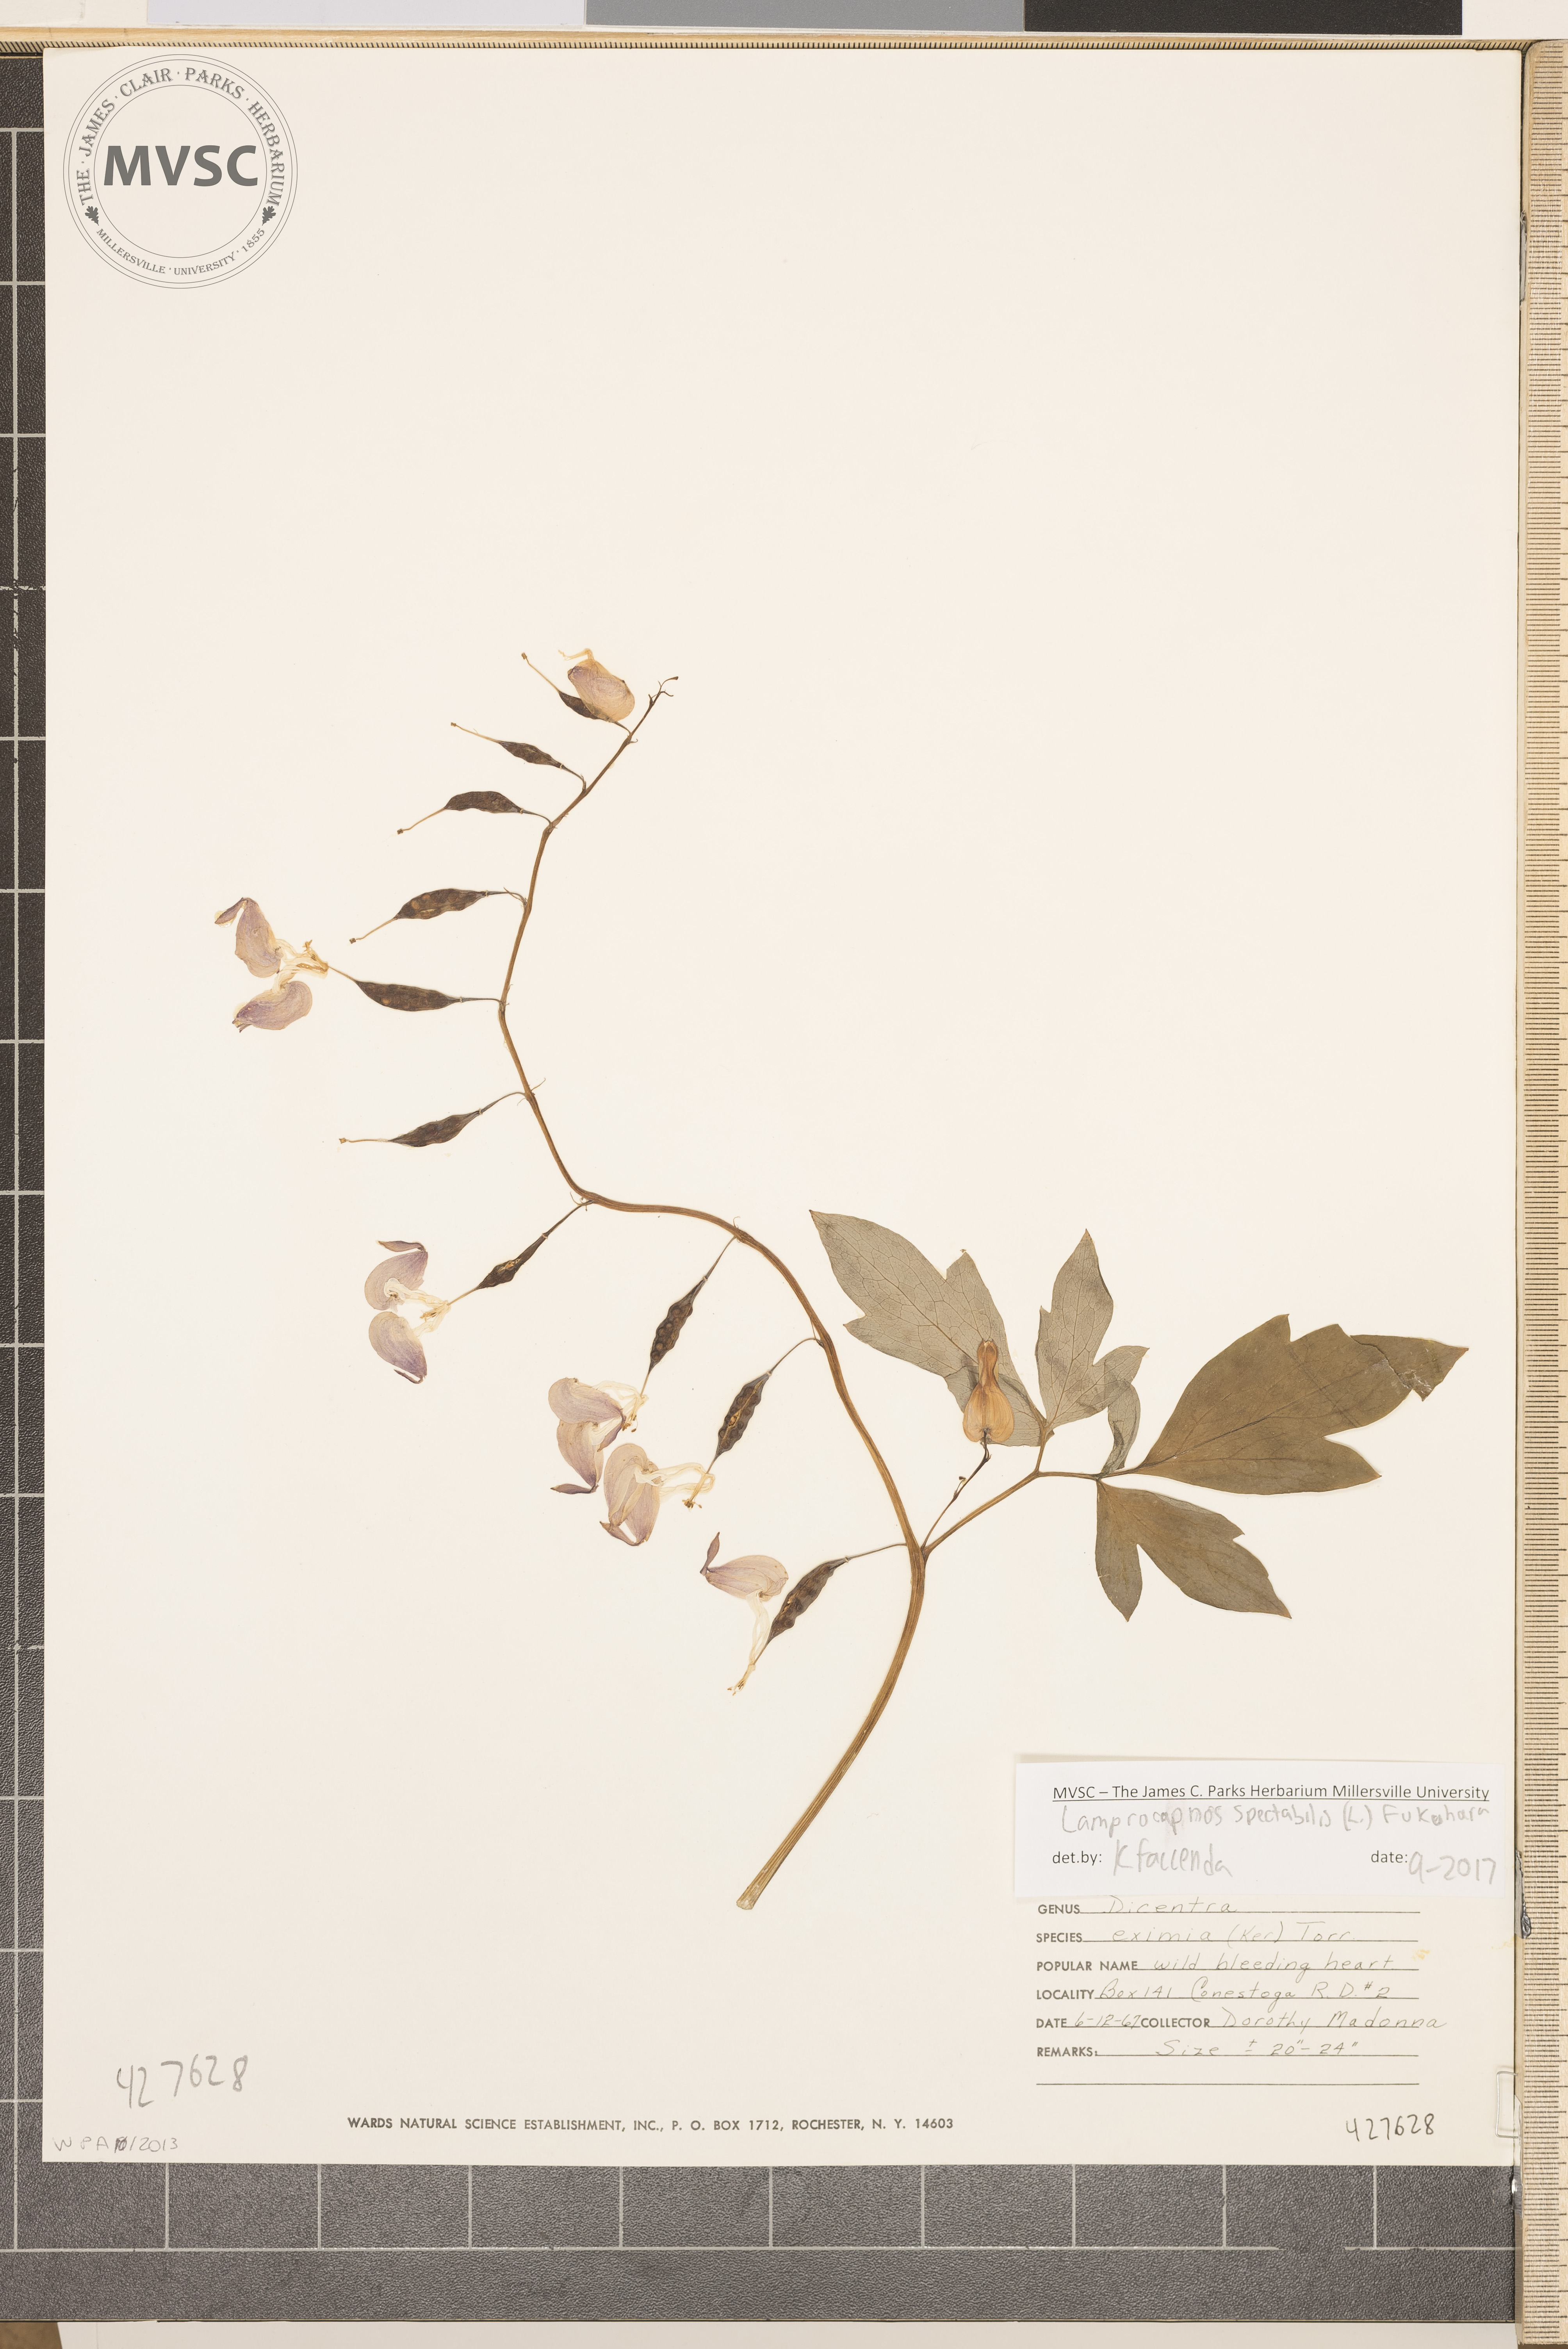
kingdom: Plantae
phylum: Tracheophyta
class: Magnoliopsida
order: Ranunculales
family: Papaveraceae
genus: Lamprocapnos
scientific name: Lamprocapnos spectabilis
